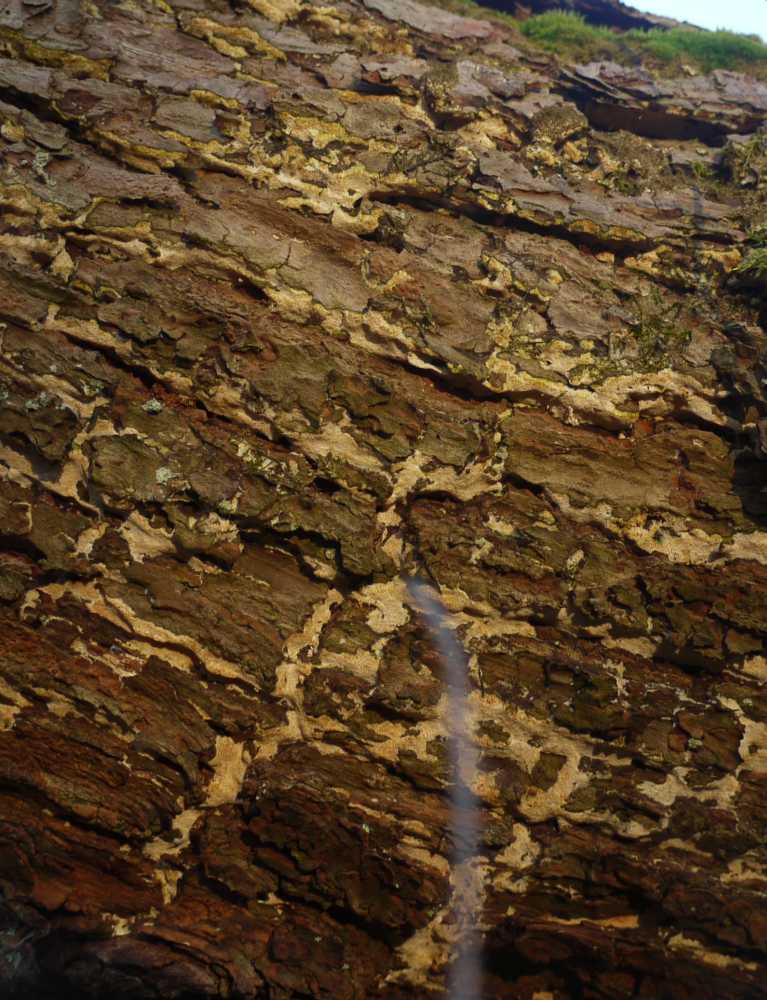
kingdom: Fungi
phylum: Basidiomycota
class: Agaricomycetes
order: Hymenochaetales
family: Schizoporaceae
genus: Xylodon
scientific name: Xylodon flaviporus
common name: gulporet tandsvamp
